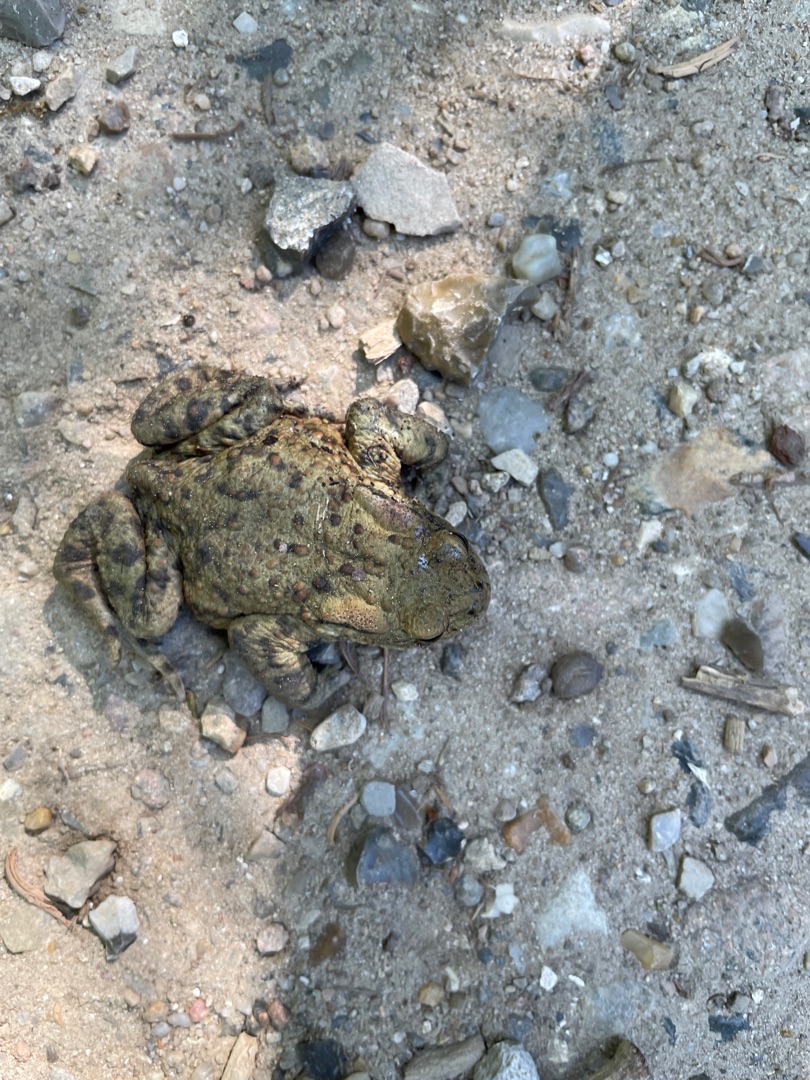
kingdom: Animalia
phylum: Chordata
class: Amphibia
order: Anura
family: Bufonidae
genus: Bufo
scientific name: Bufo bufo
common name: Skrubtudse
